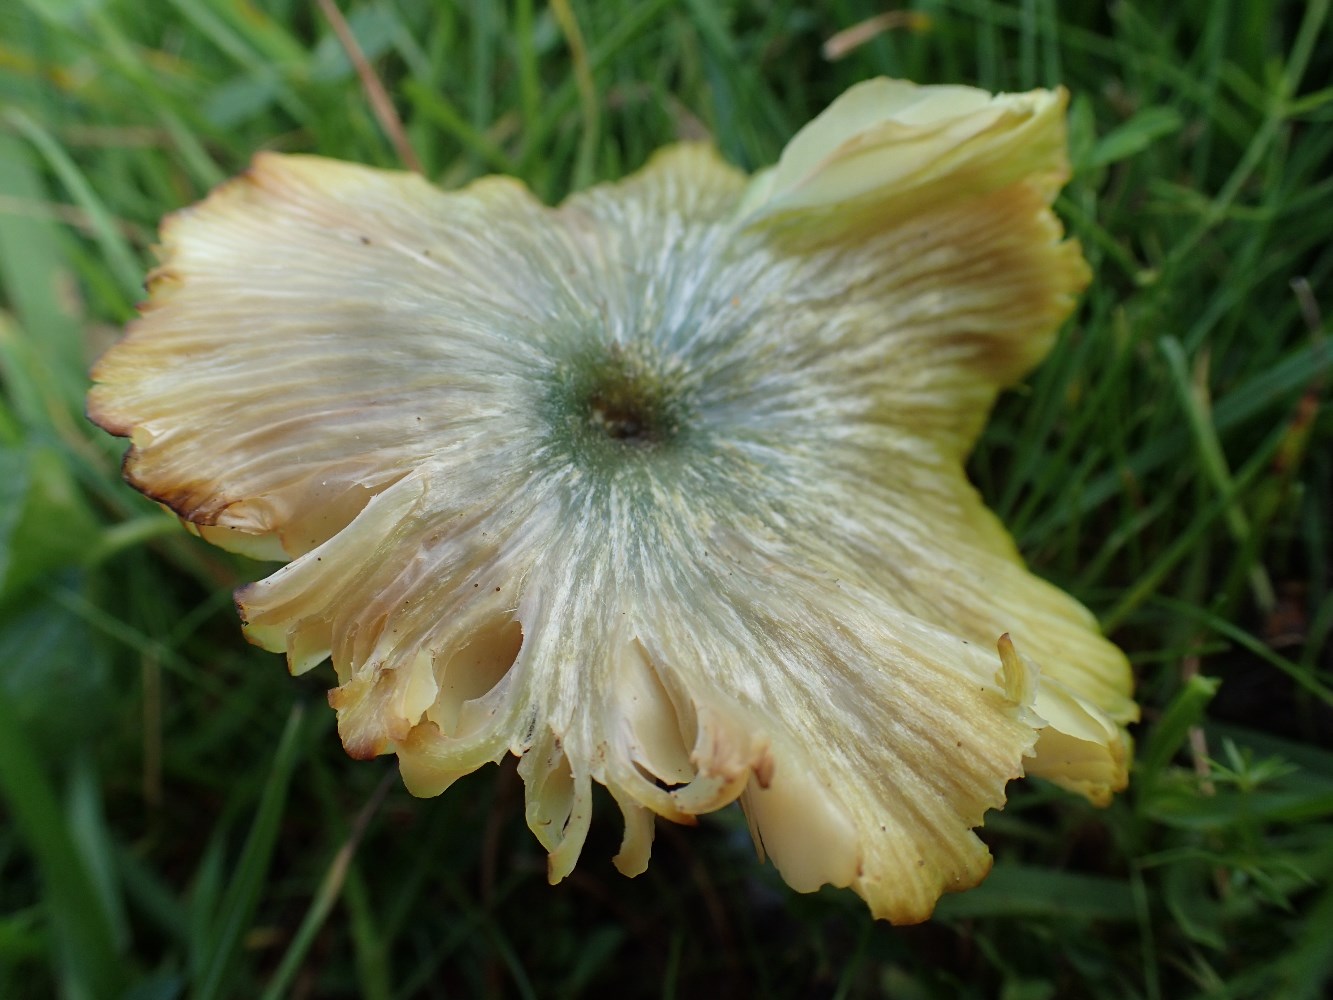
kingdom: Fungi
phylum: Basidiomycota
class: Agaricomycetes
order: Agaricales
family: Entolomataceae
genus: Entoloma
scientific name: Entoloma incanum
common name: grøngul rødblad
